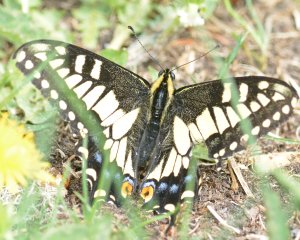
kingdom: Animalia
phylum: Arthropoda
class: Insecta
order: Lepidoptera
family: Papilionidae
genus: Papilio
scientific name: Papilio zelicaon
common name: Anise Swallowtail
